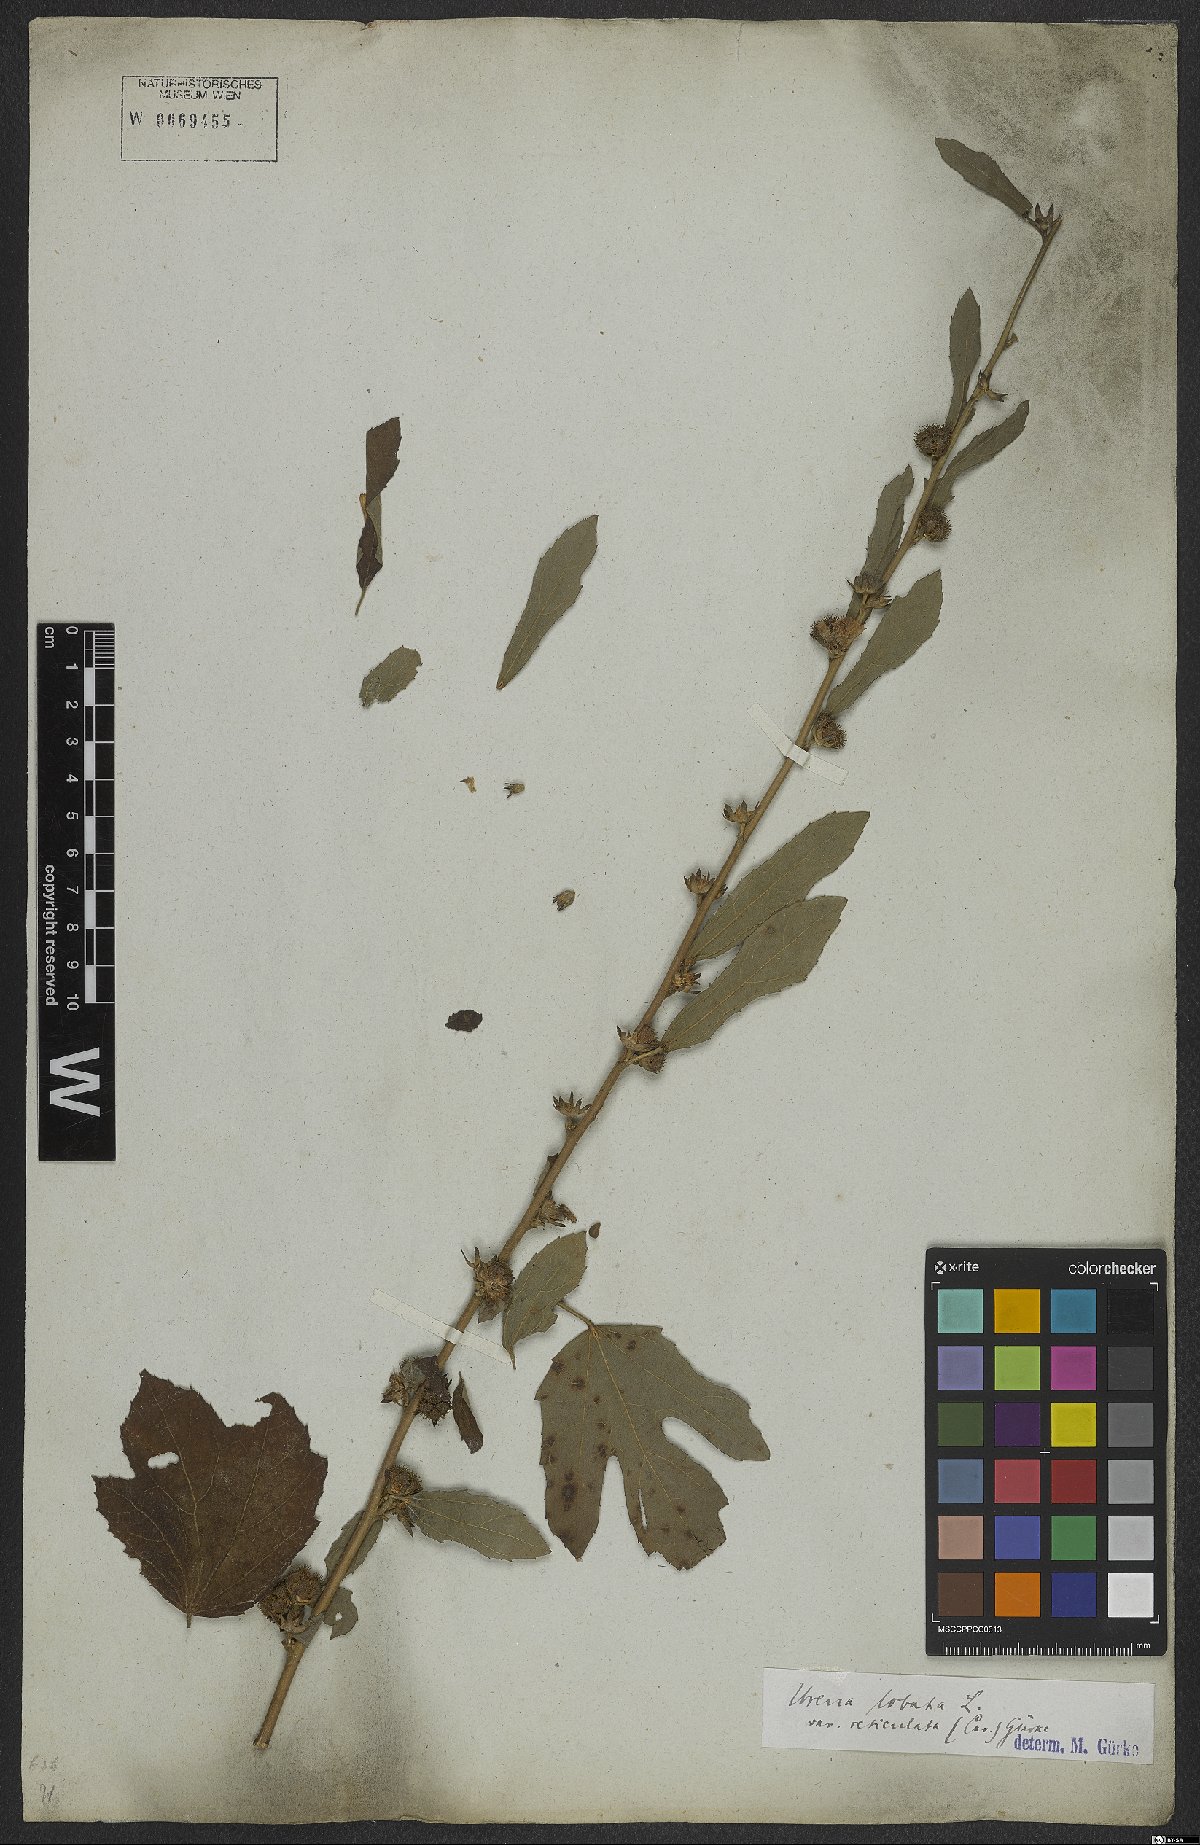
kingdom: Plantae
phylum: Tracheophyta
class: Magnoliopsida
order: Malvales
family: Malvaceae
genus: Urena
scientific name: Urena lobata
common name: Caesarweed
